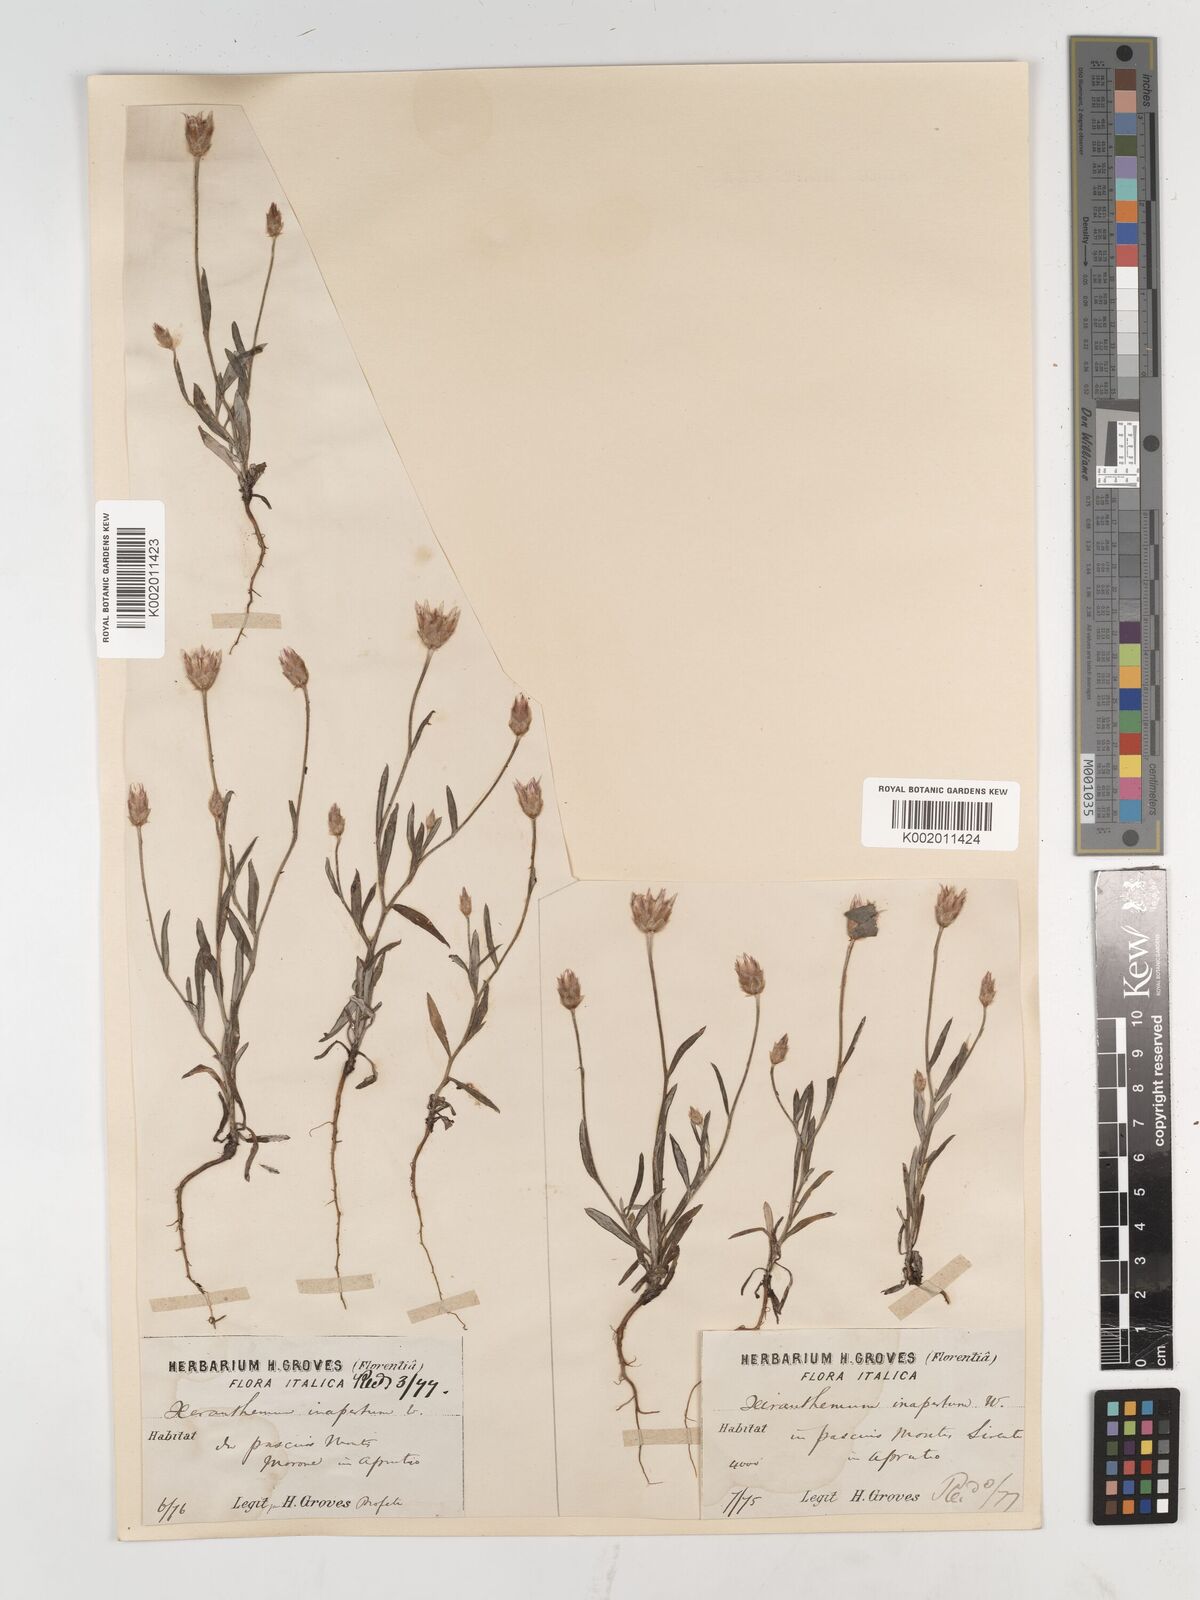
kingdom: Plantae
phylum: Tracheophyta
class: Magnoliopsida
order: Asterales
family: Asteraceae
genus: Xeranthemum
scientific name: Xeranthemum inapertum
